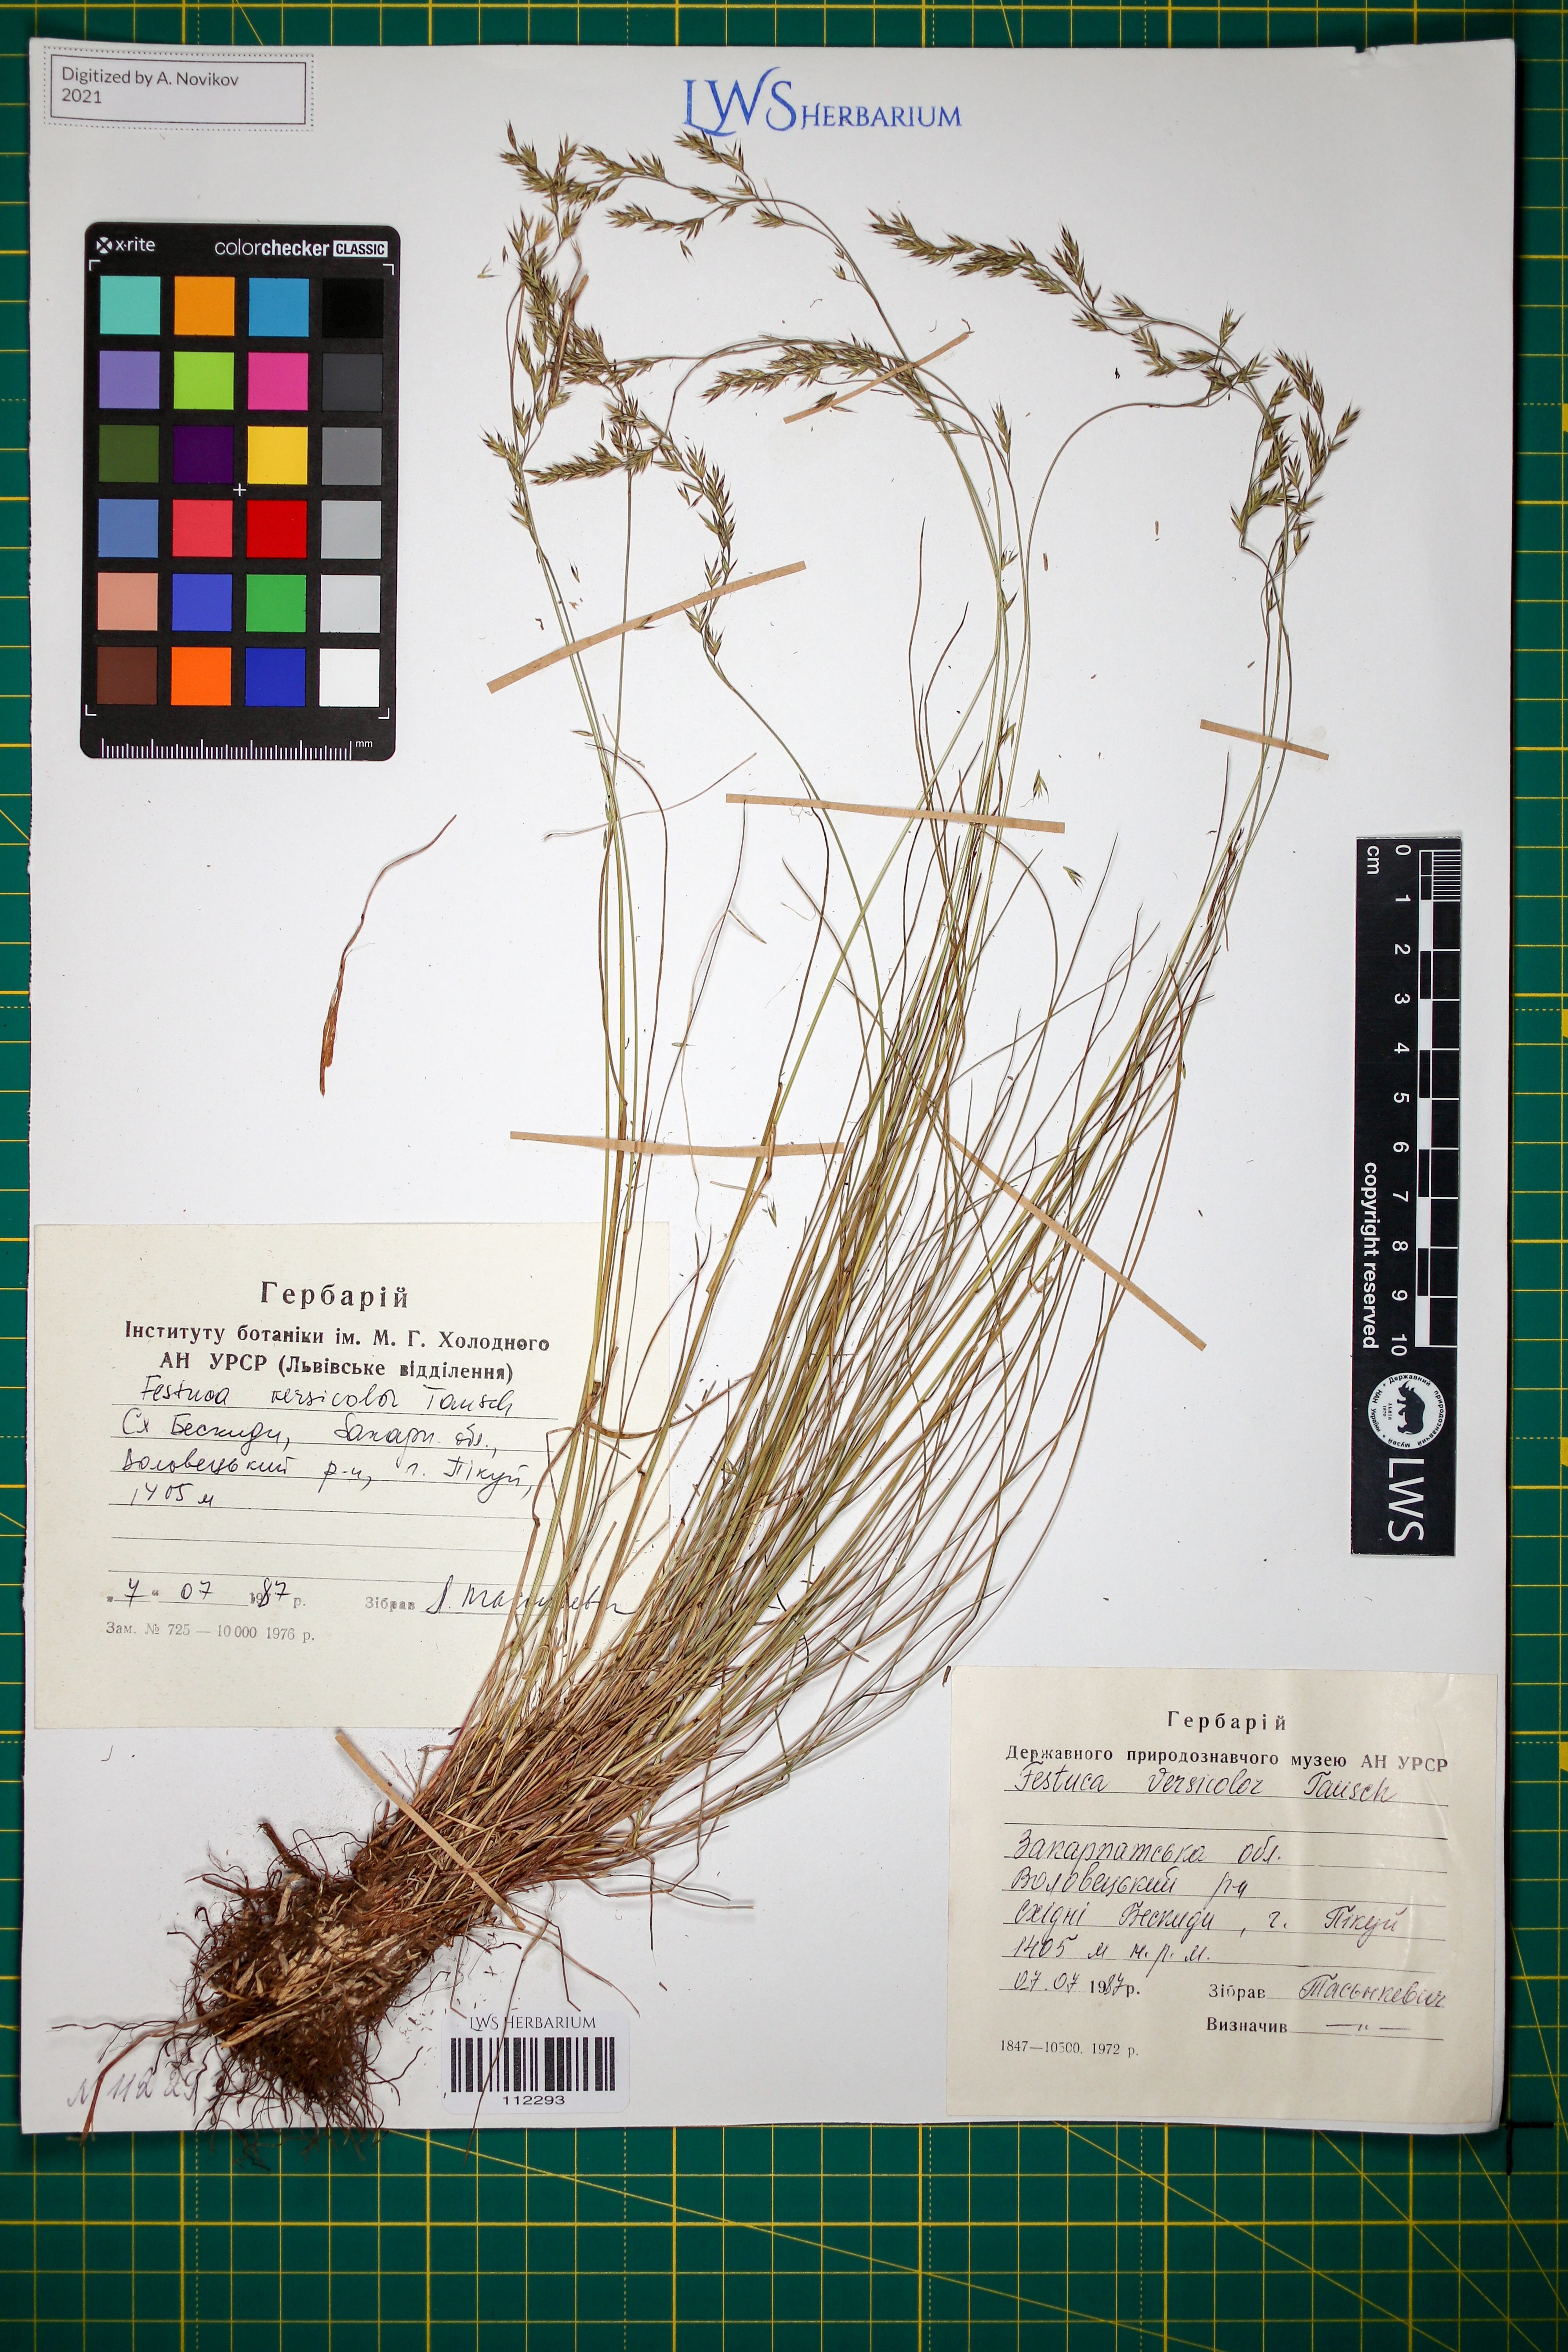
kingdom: Plantae
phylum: Tracheophyta
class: Liliopsida
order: Poales
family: Poaceae
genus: Festuca
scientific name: Festuca versicolor
